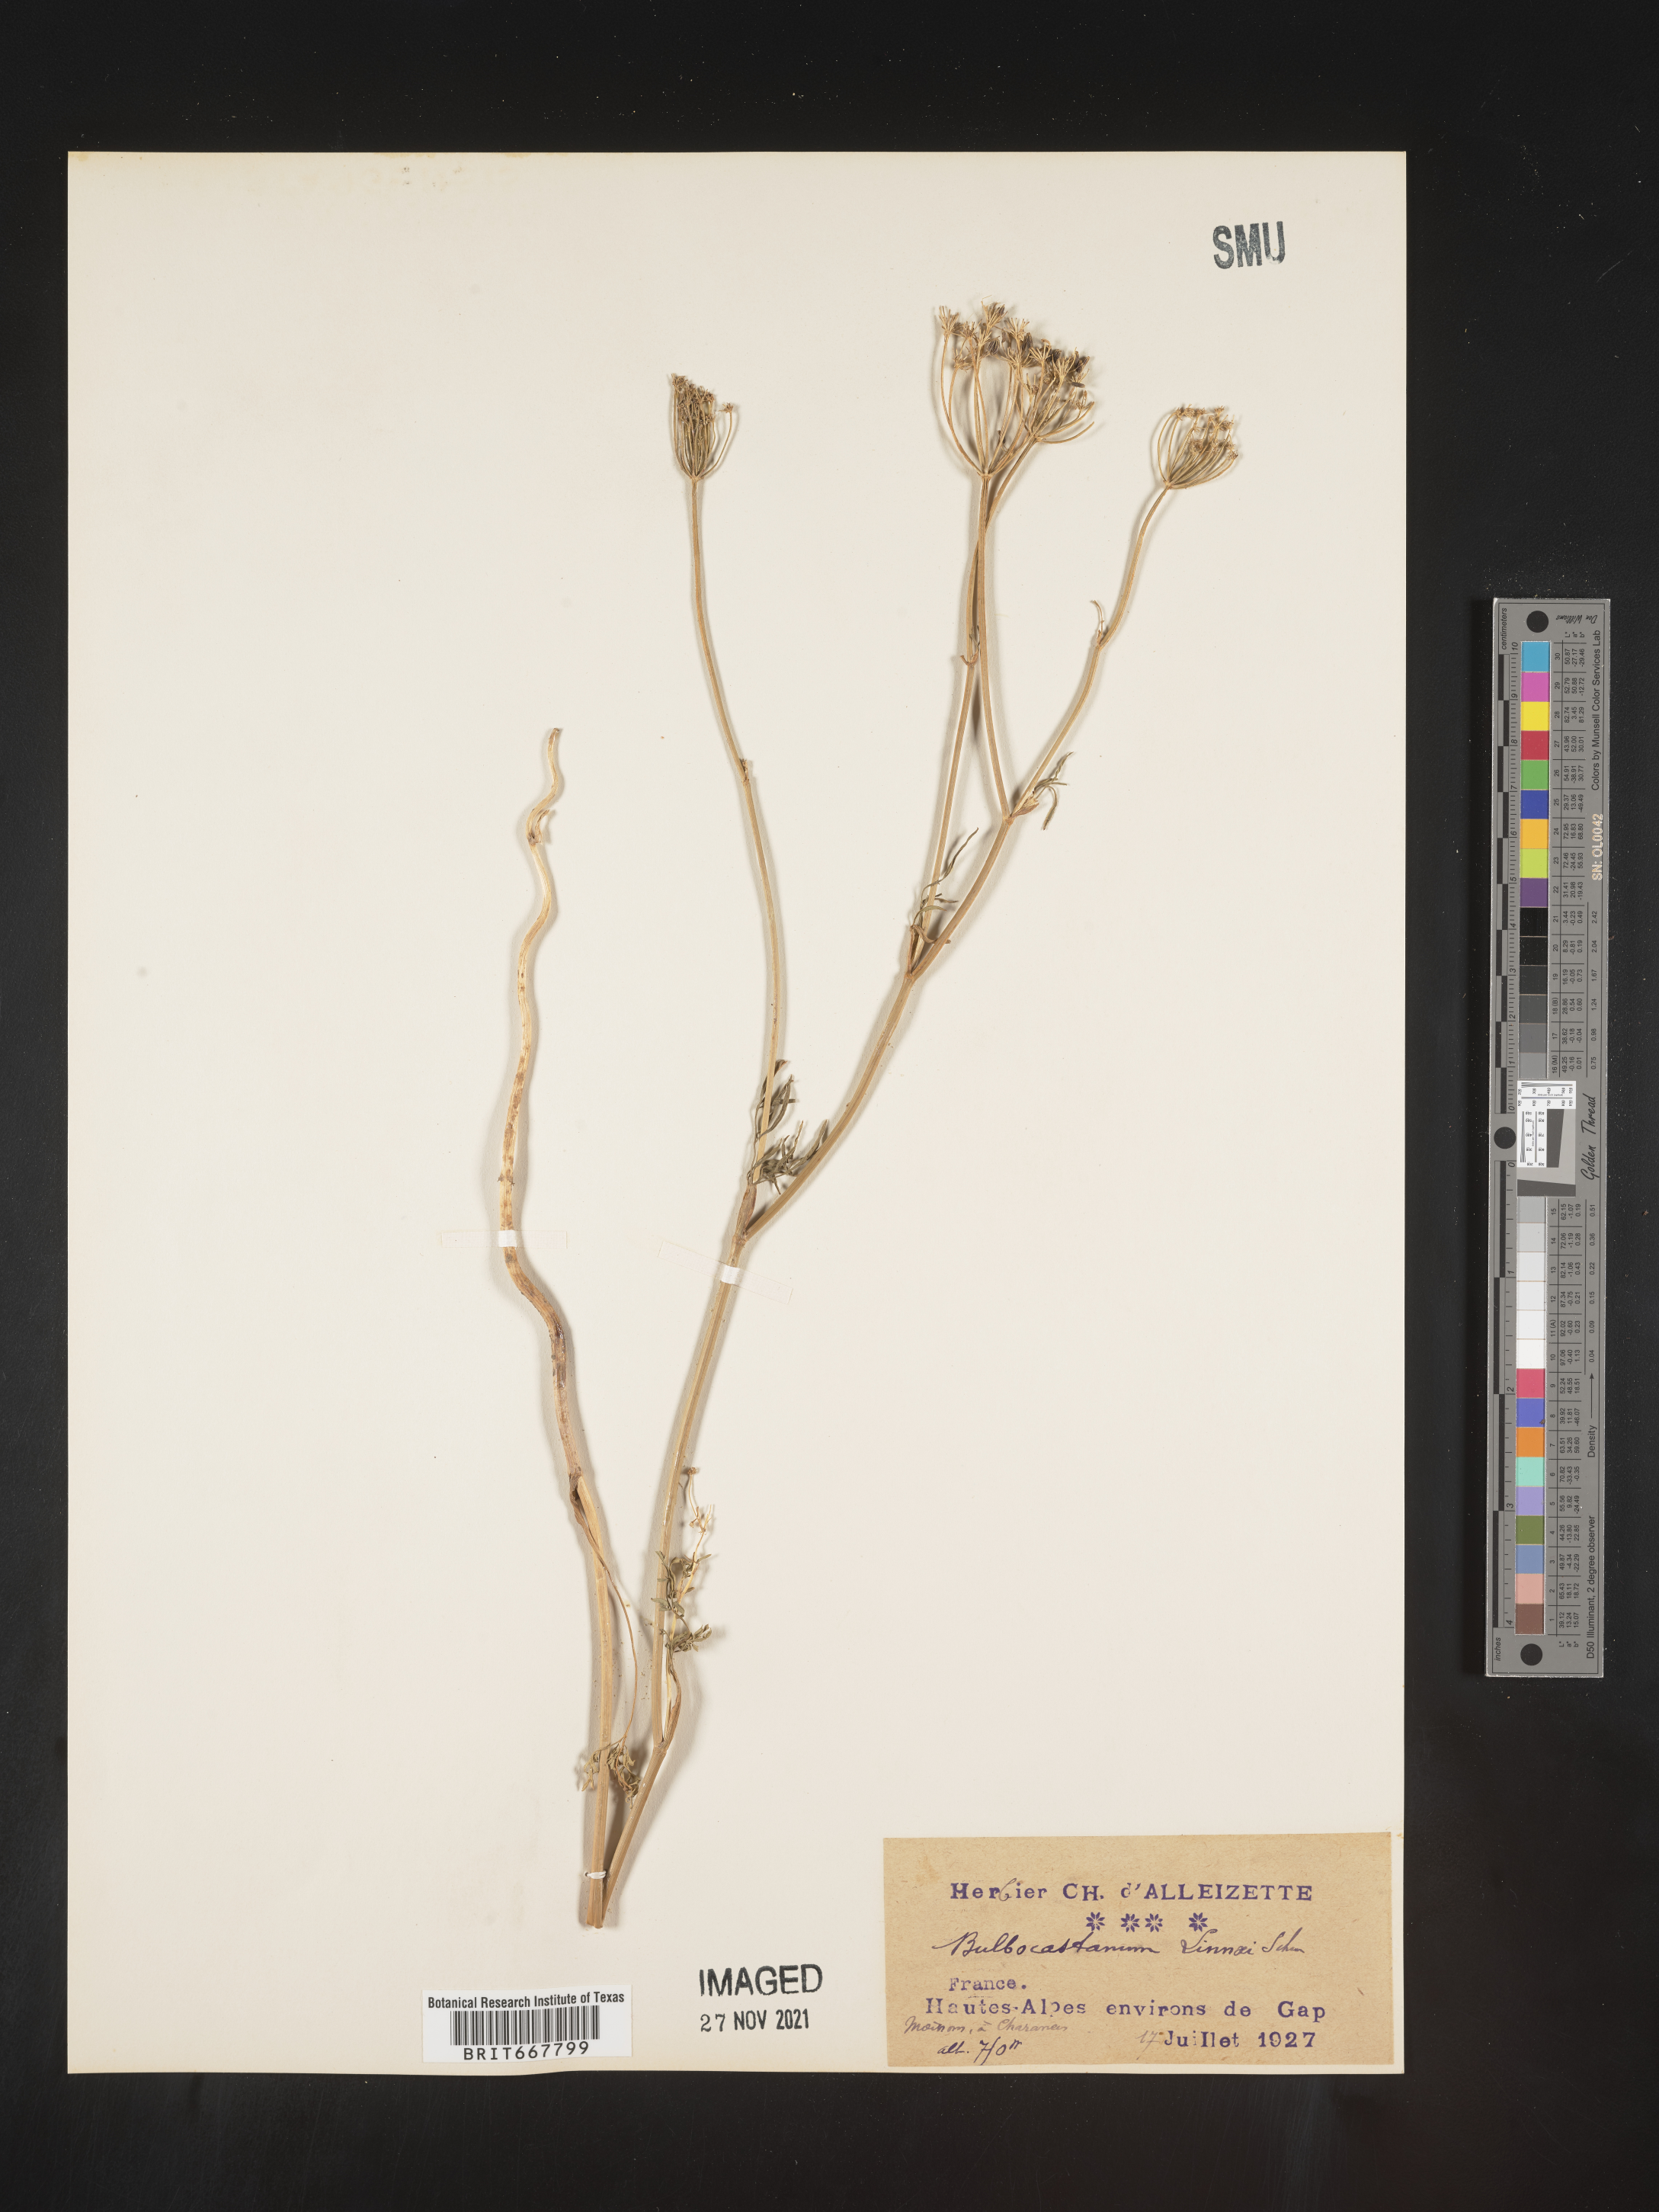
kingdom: Plantae
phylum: Tracheophyta
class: Magnoliopsida
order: Apiales
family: Apiaceae
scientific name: Apiaceae
